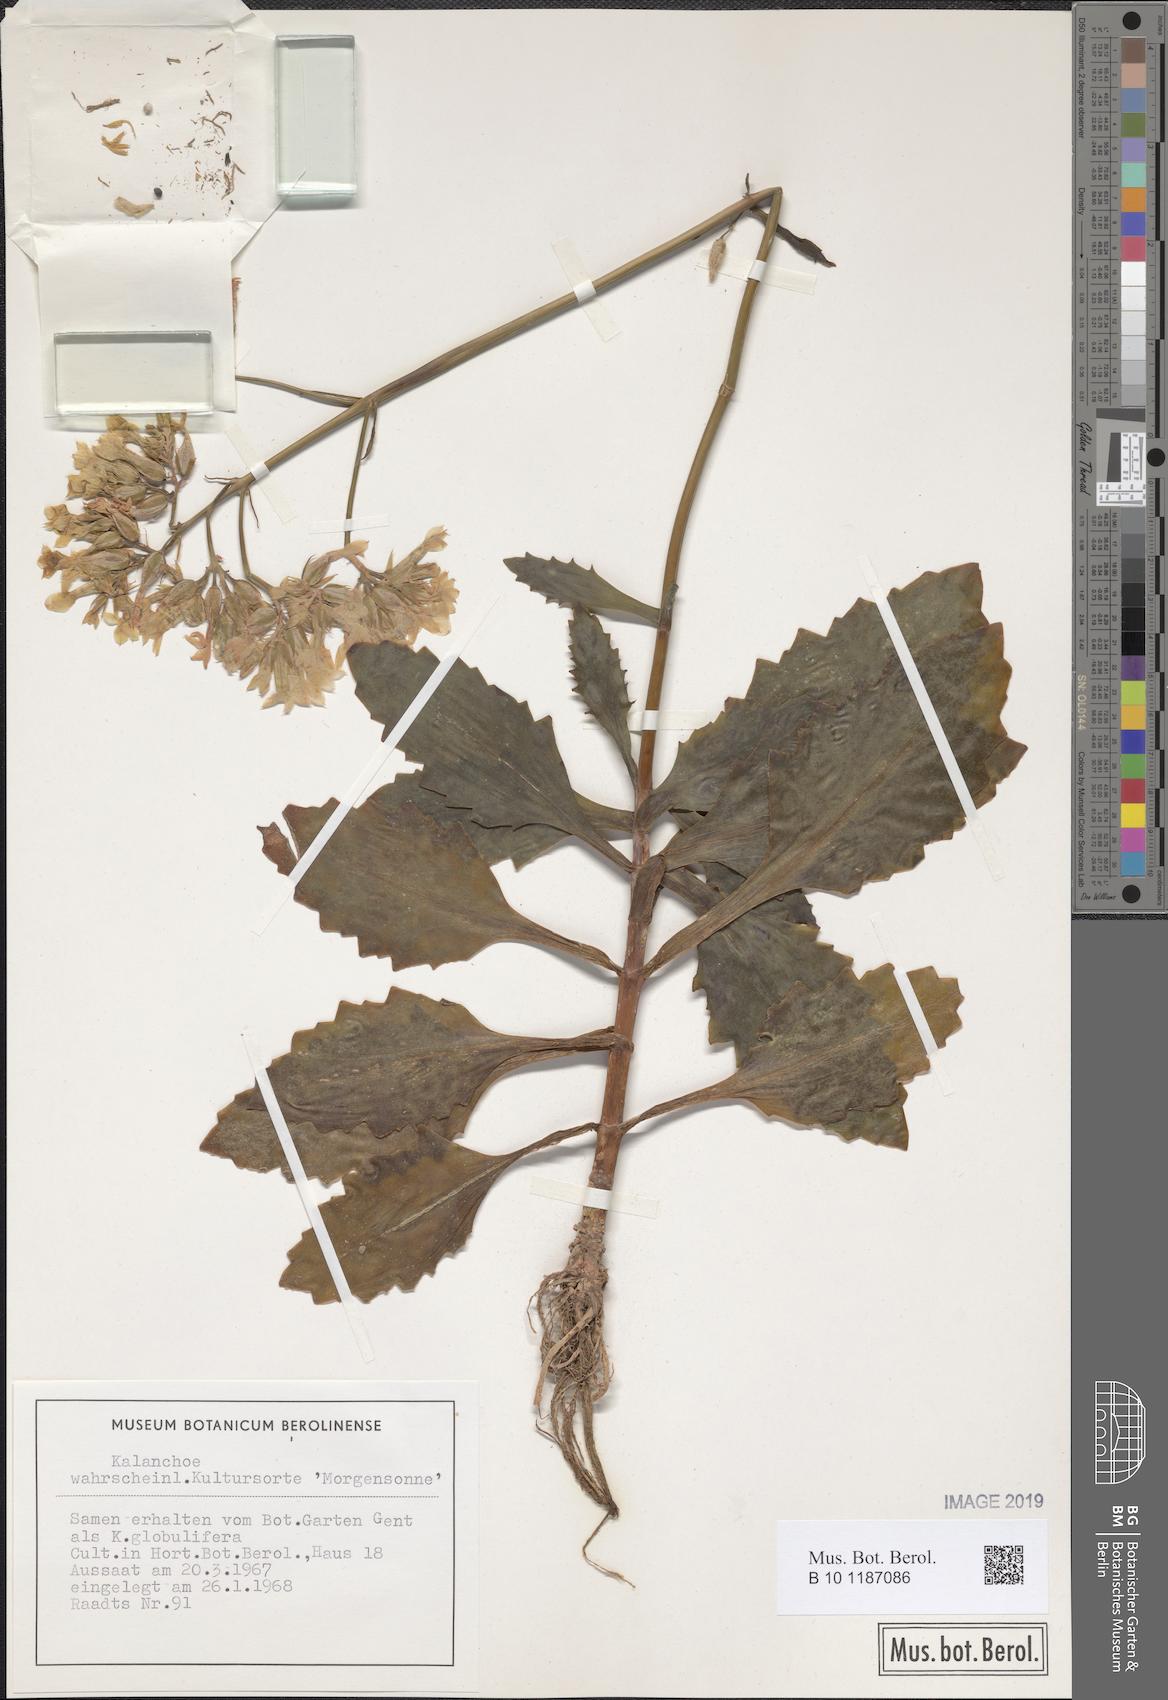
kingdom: Plantae
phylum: Tracheophyta
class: Magnoliopsida
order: Saxifragales
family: Crassulaceae
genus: Kalanchoe
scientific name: Kalanchoe
